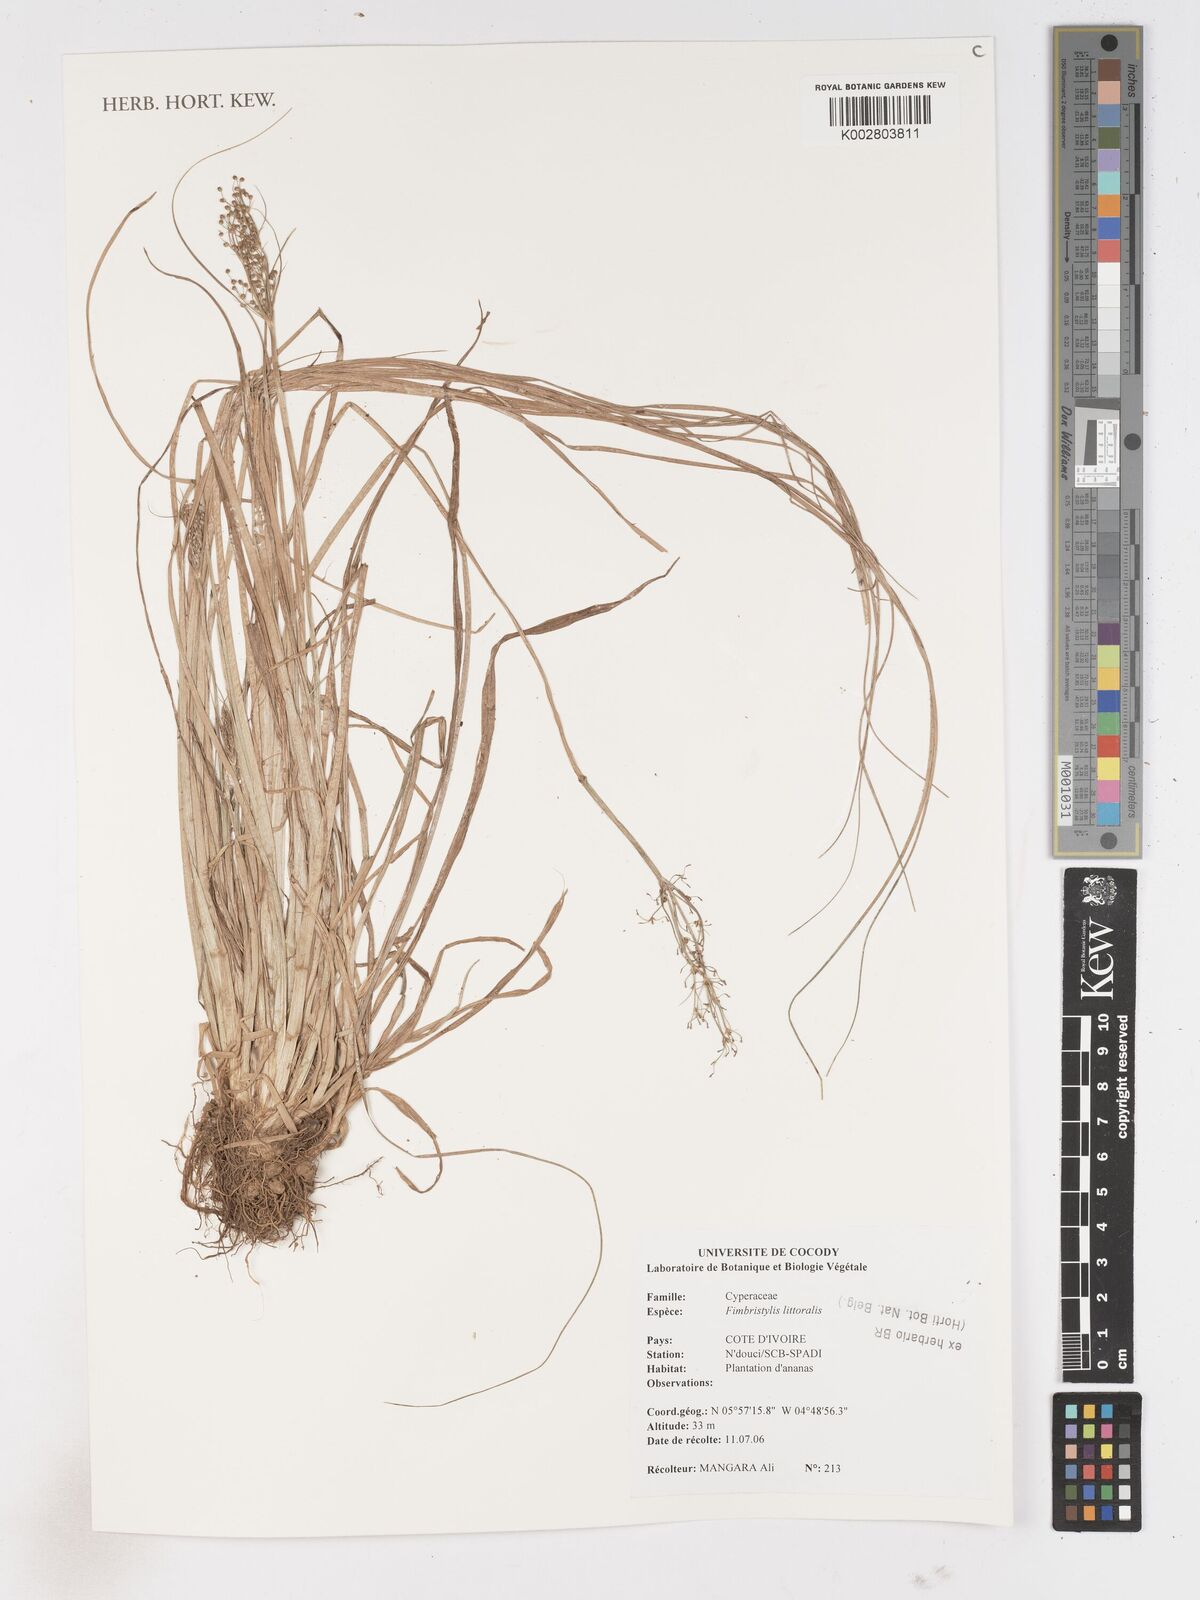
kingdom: Plantae
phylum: Tracheophyta
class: Liliopsida
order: Poales
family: Cyperaceae
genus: Fimbristylis
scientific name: Fimbristylis littoralis
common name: Fimbry
